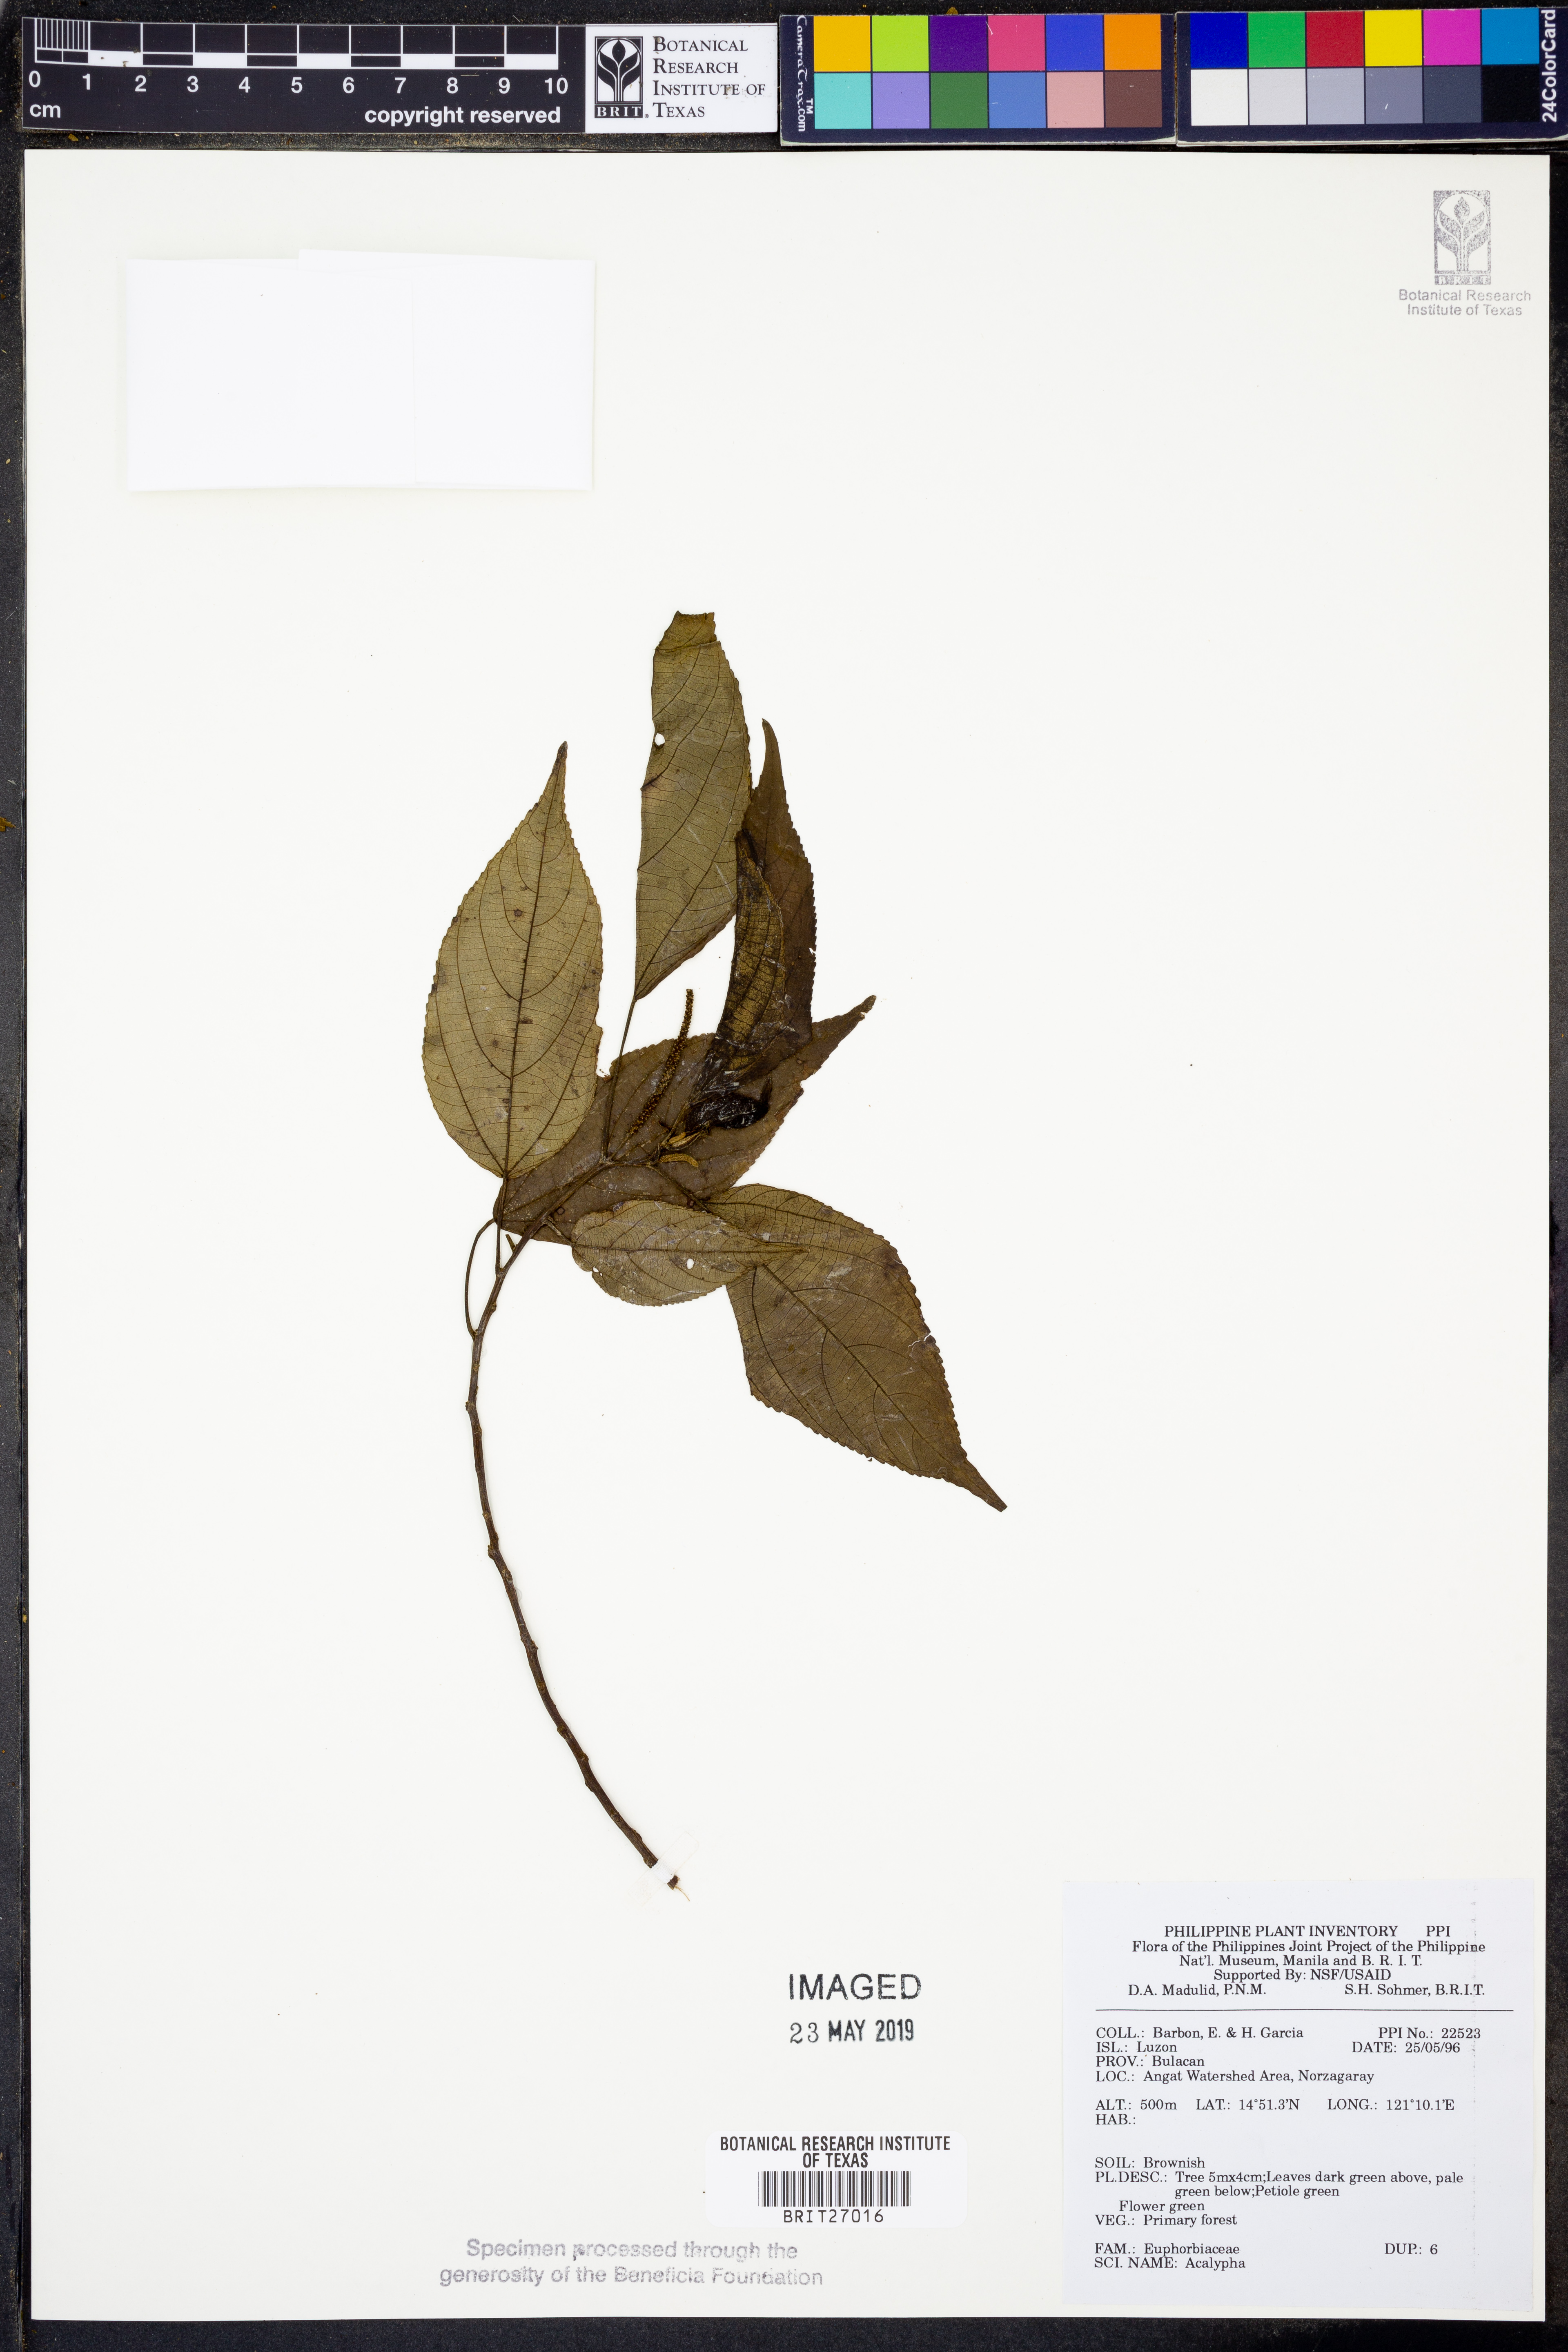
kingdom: Plantae
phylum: Tracheophyta
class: Magnoliopsida
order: Malpighiales
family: Euphorbiaceae
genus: Acalypha
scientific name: Acalypha
